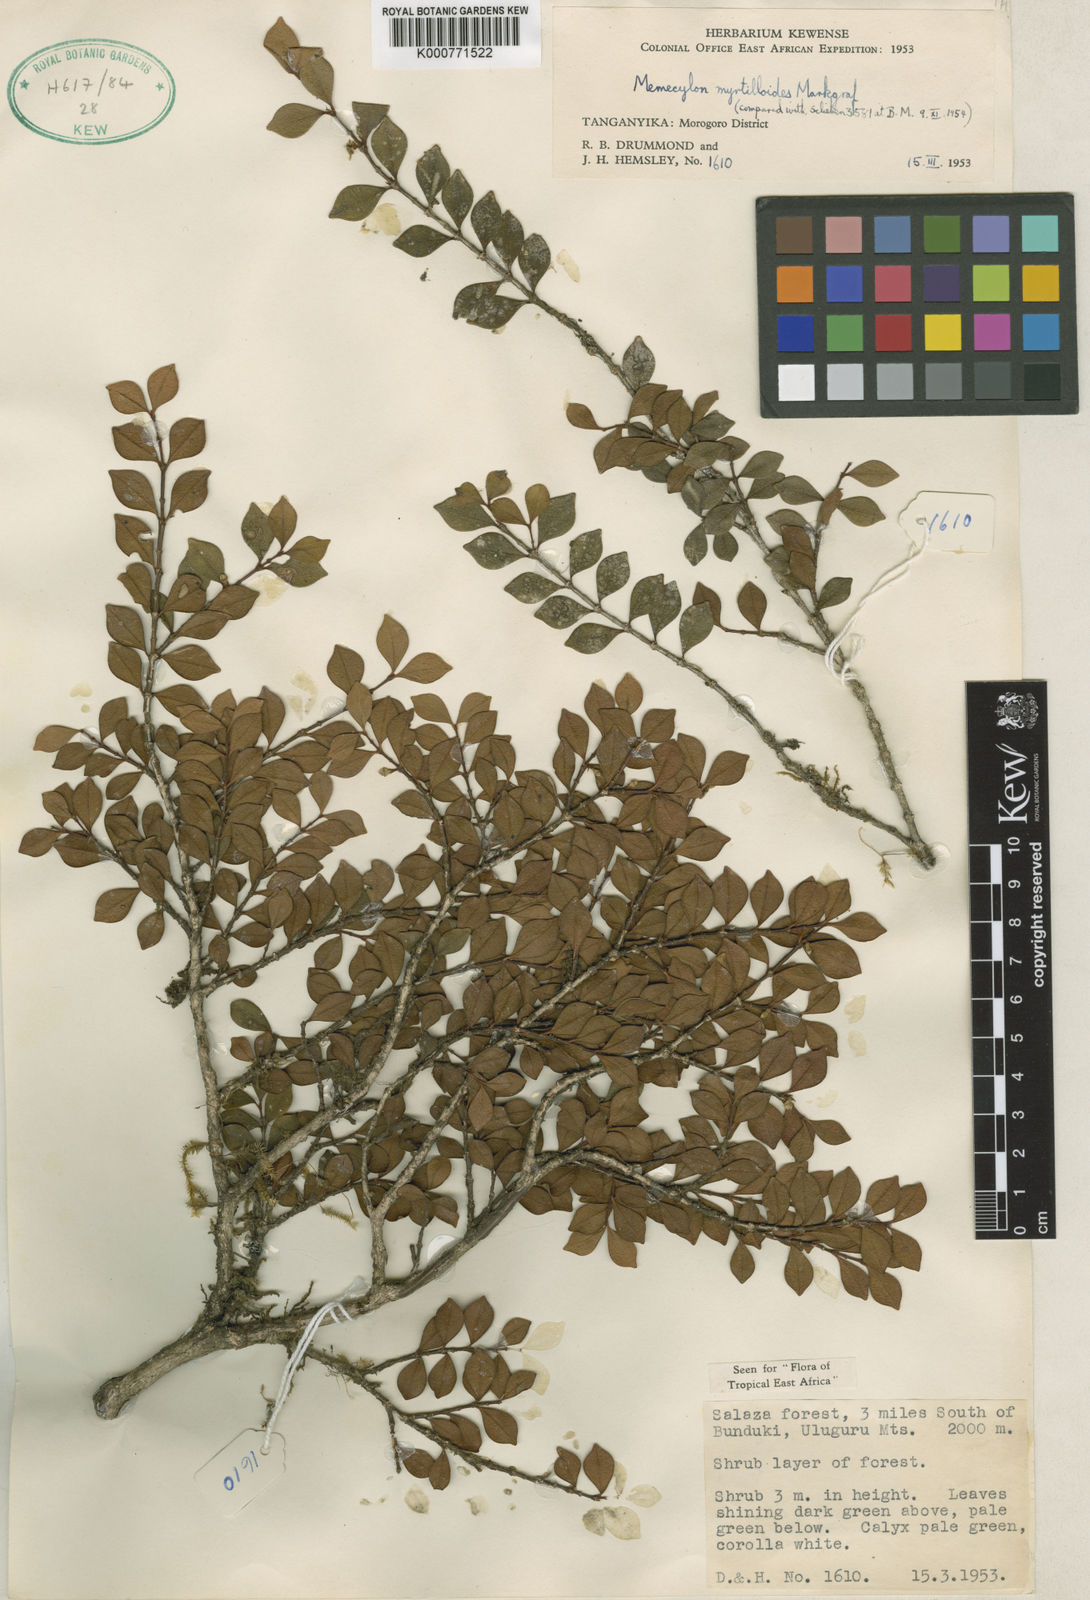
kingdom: Plantae
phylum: Tracheophyta
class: Magnoliopsida
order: Myrtales
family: Melastomataceae
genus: Memecylon
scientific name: Memecylon myrtilloides
